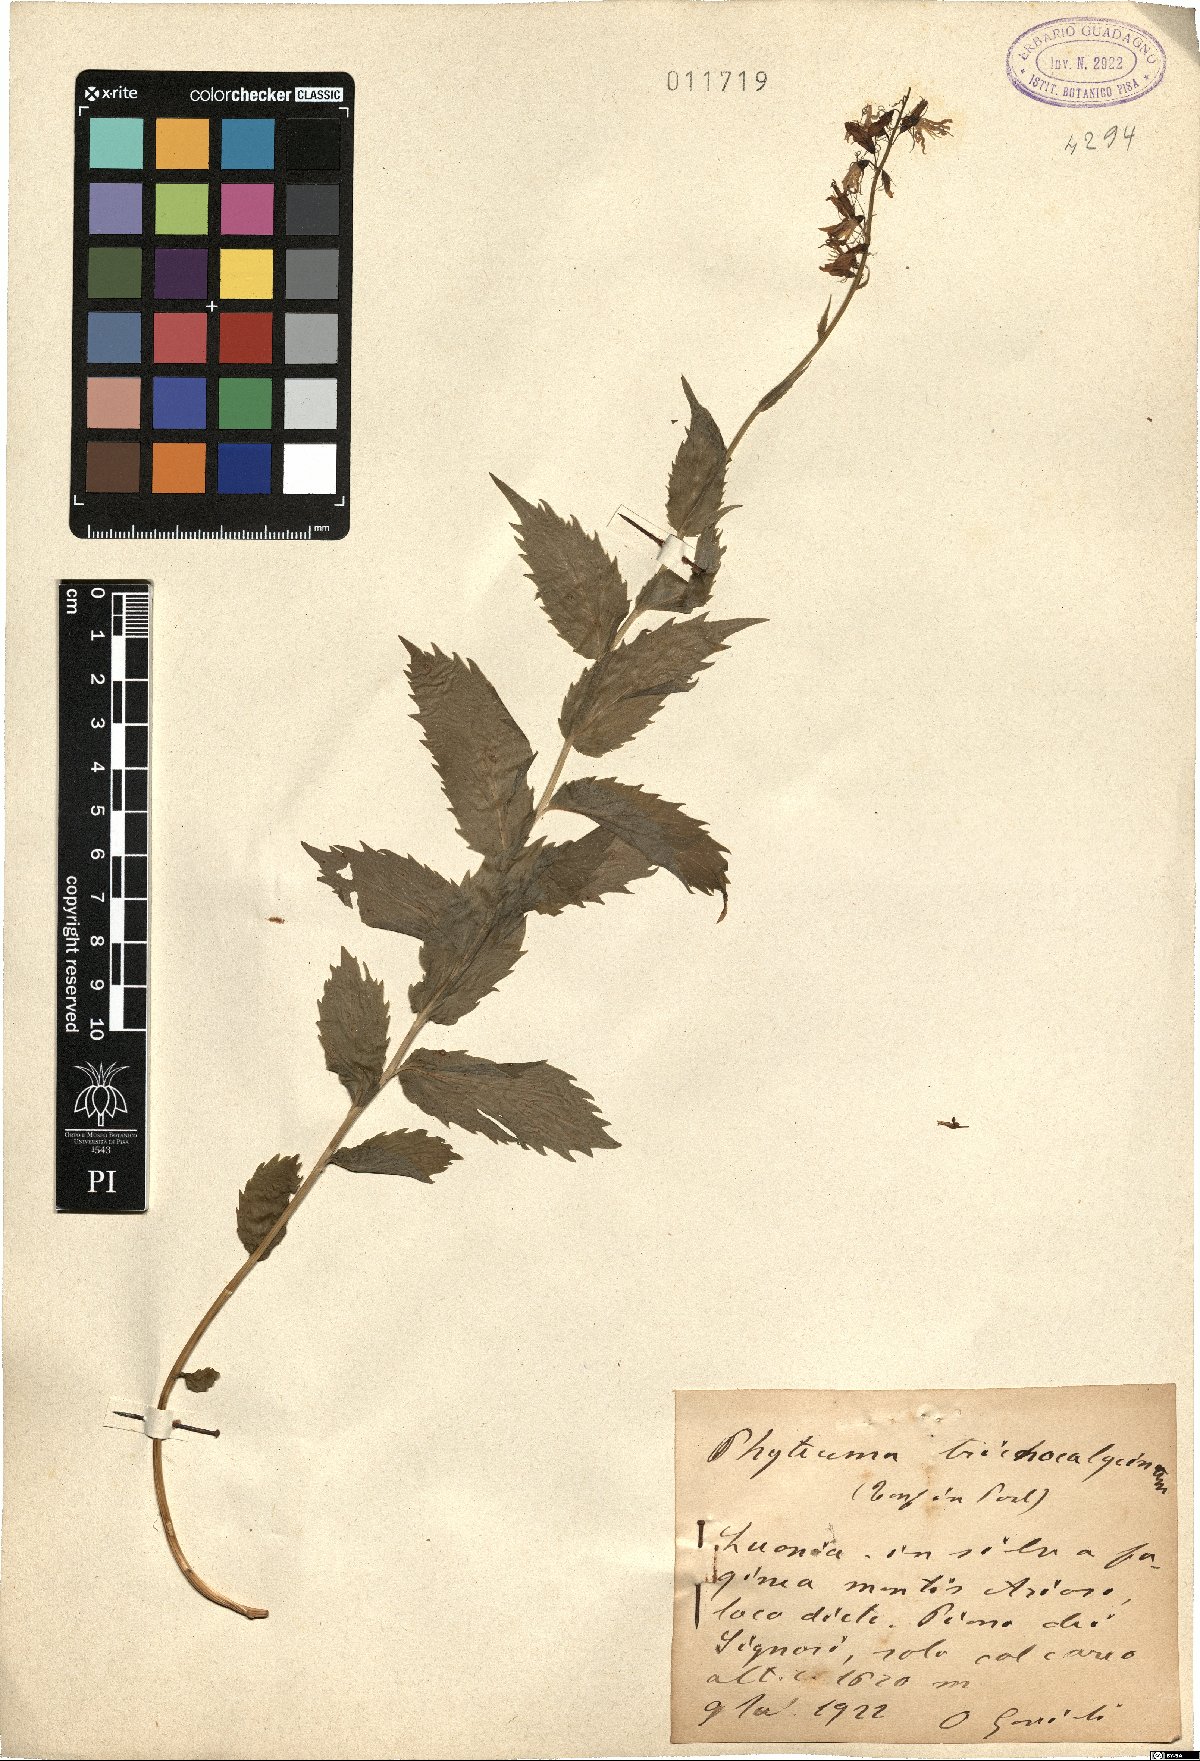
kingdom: Plantae
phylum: Tracheophyta
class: Magnoliopsida
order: Asterales
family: Campanulaceae
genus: Campanula
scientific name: Campanula trichocalycina
